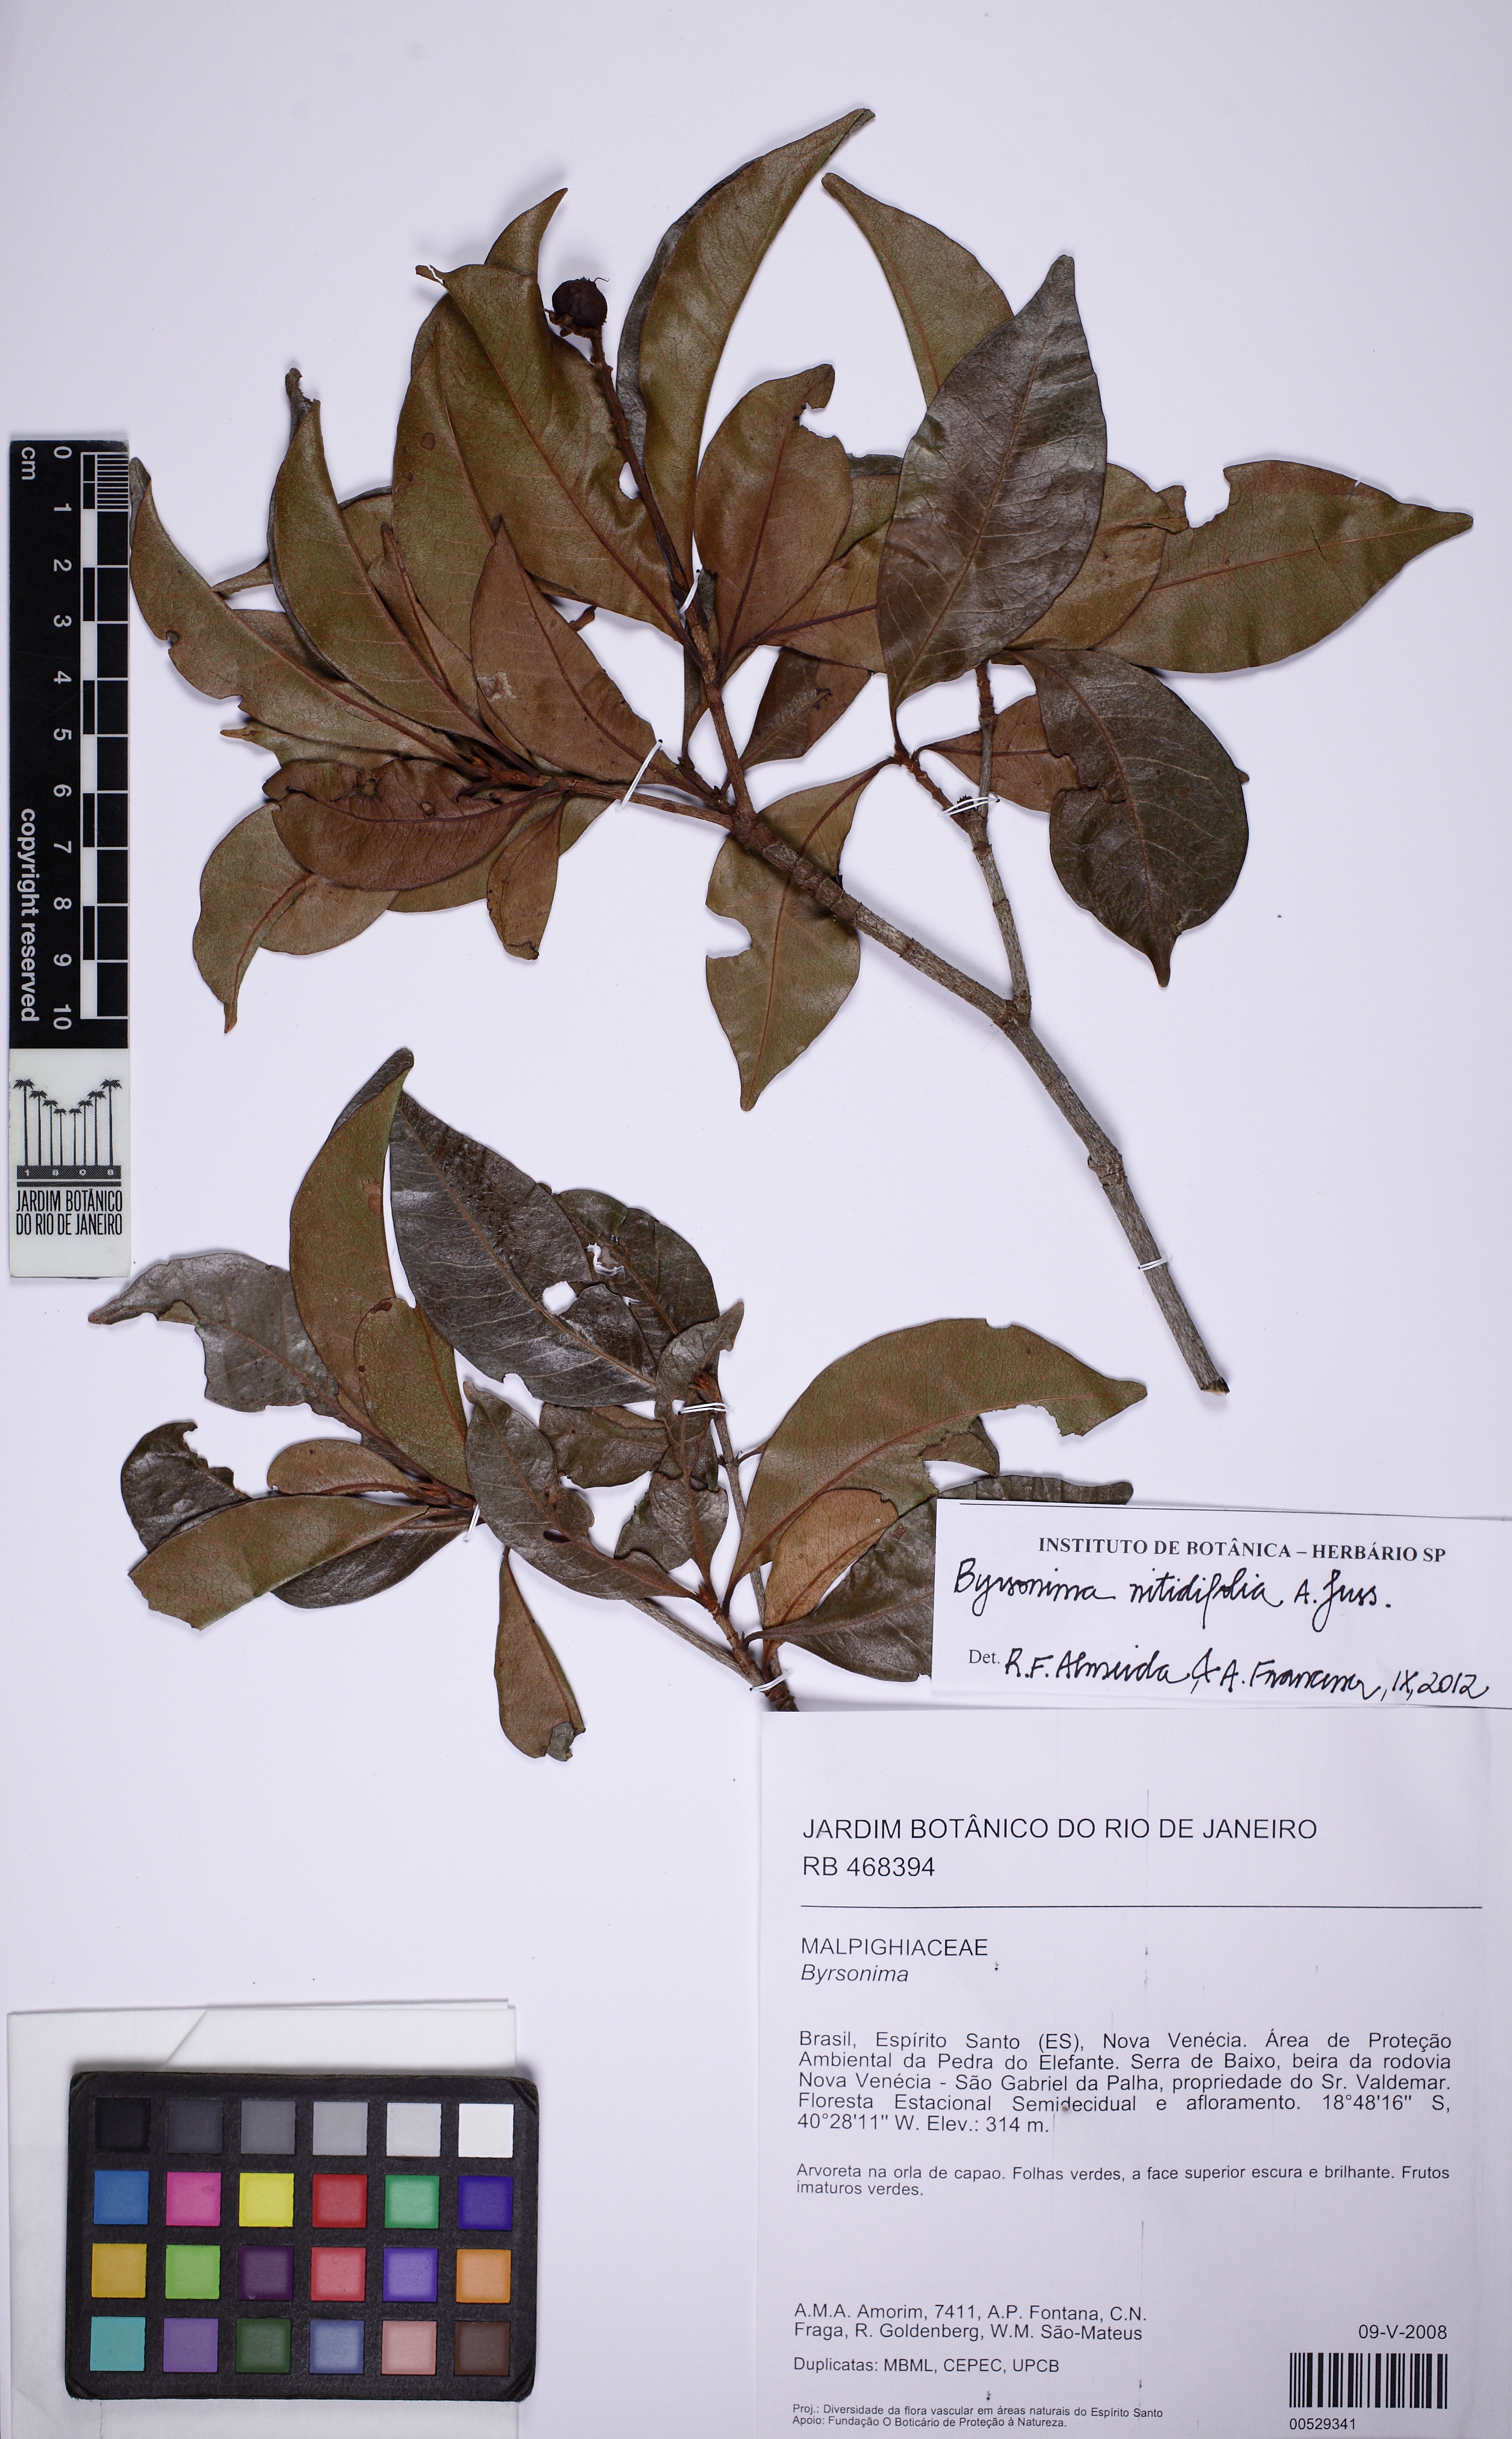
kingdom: Plantae
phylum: Tracheophyta
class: Magnoliopsida
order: Malpighiales
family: Malpighiaceae
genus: Byrsonima
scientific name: Byrsonima nitidifolia
